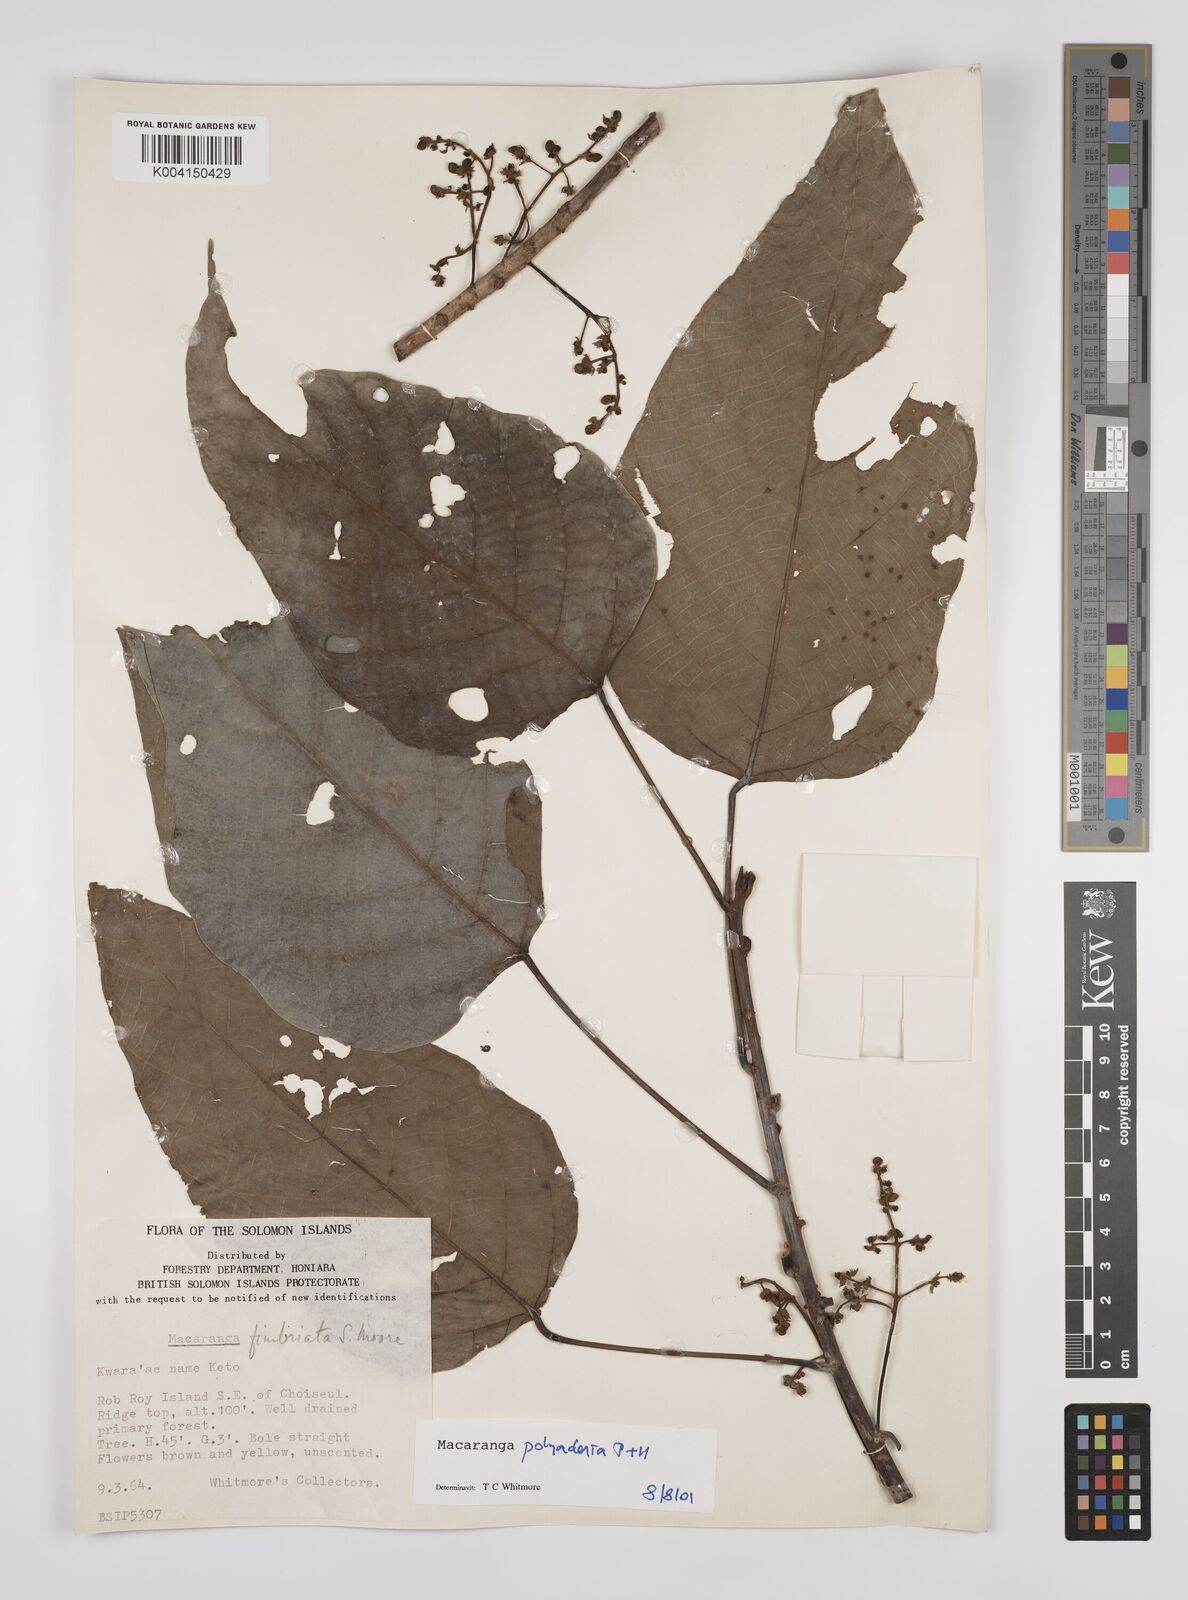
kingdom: Plantae
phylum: Tracheophyta
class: Magnoliopsida
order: Malpighiales
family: Euphorbiaceae
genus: Macaranga
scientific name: Macaranga polyadenia
